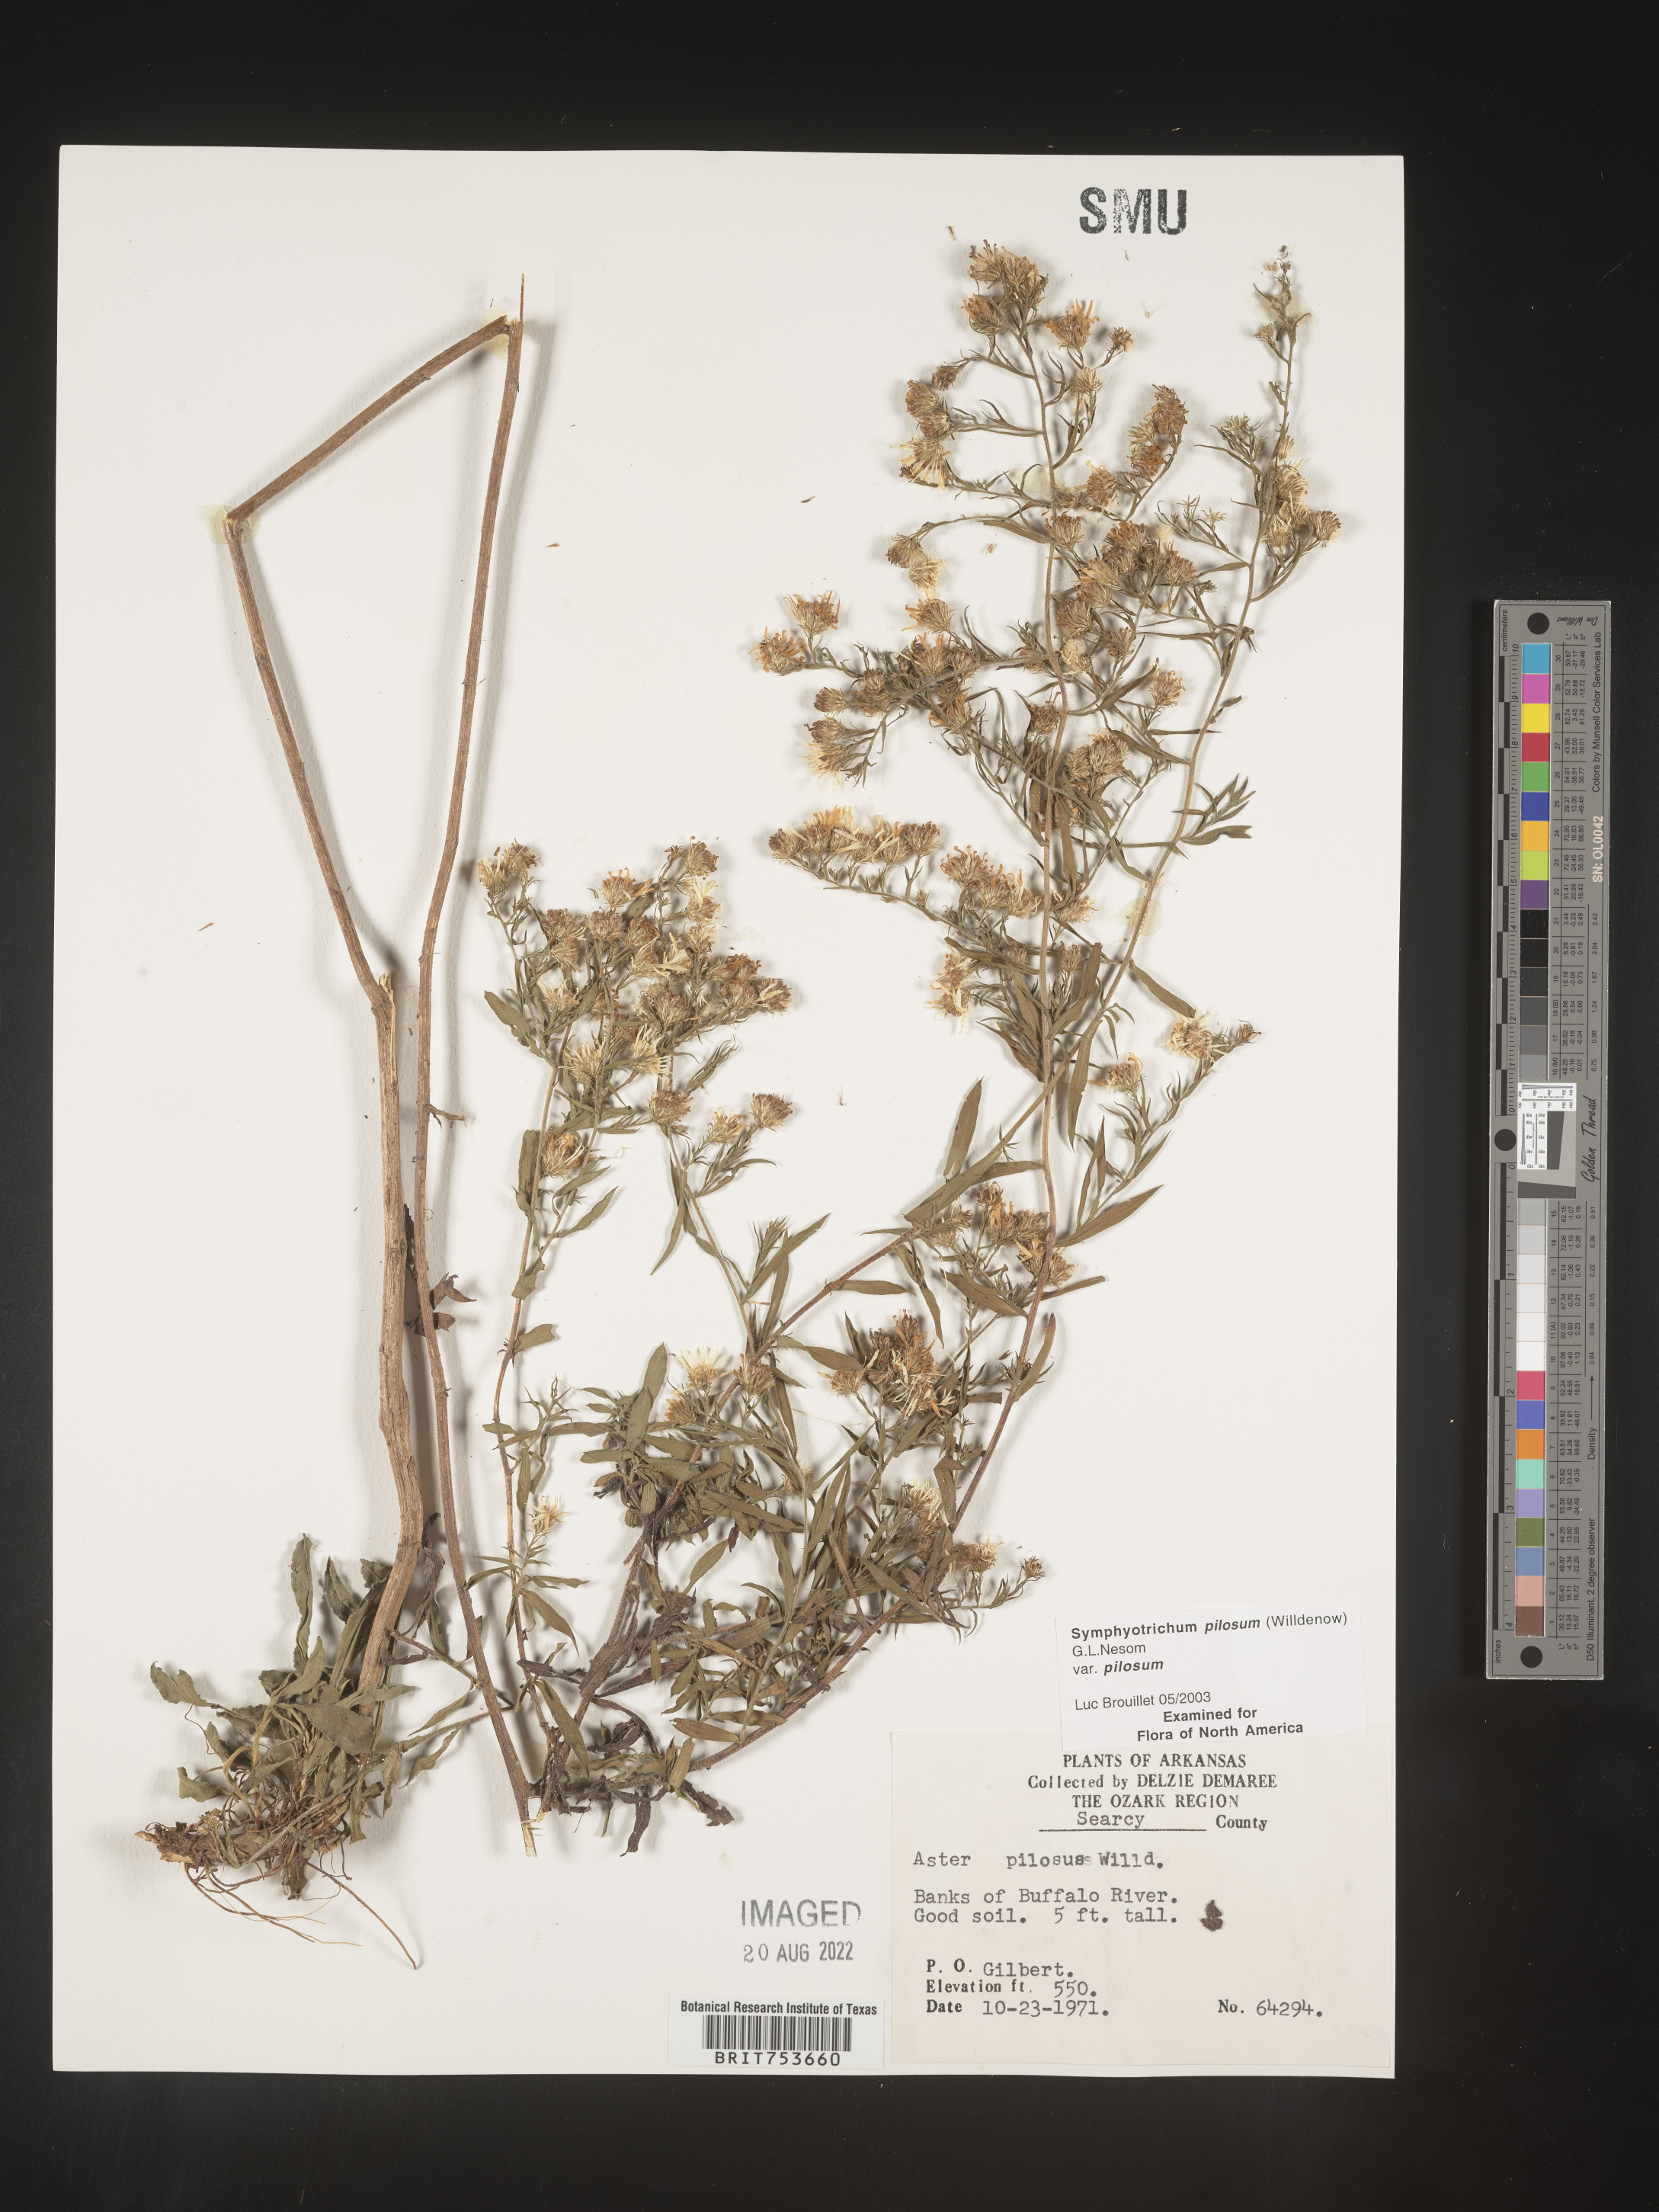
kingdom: Plantae
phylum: Tracheophyta
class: Magnoliopsida
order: Asterales
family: Asteraceae
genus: Symphyotrichum
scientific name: Symphyotrichum pilosum
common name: Awl aster
